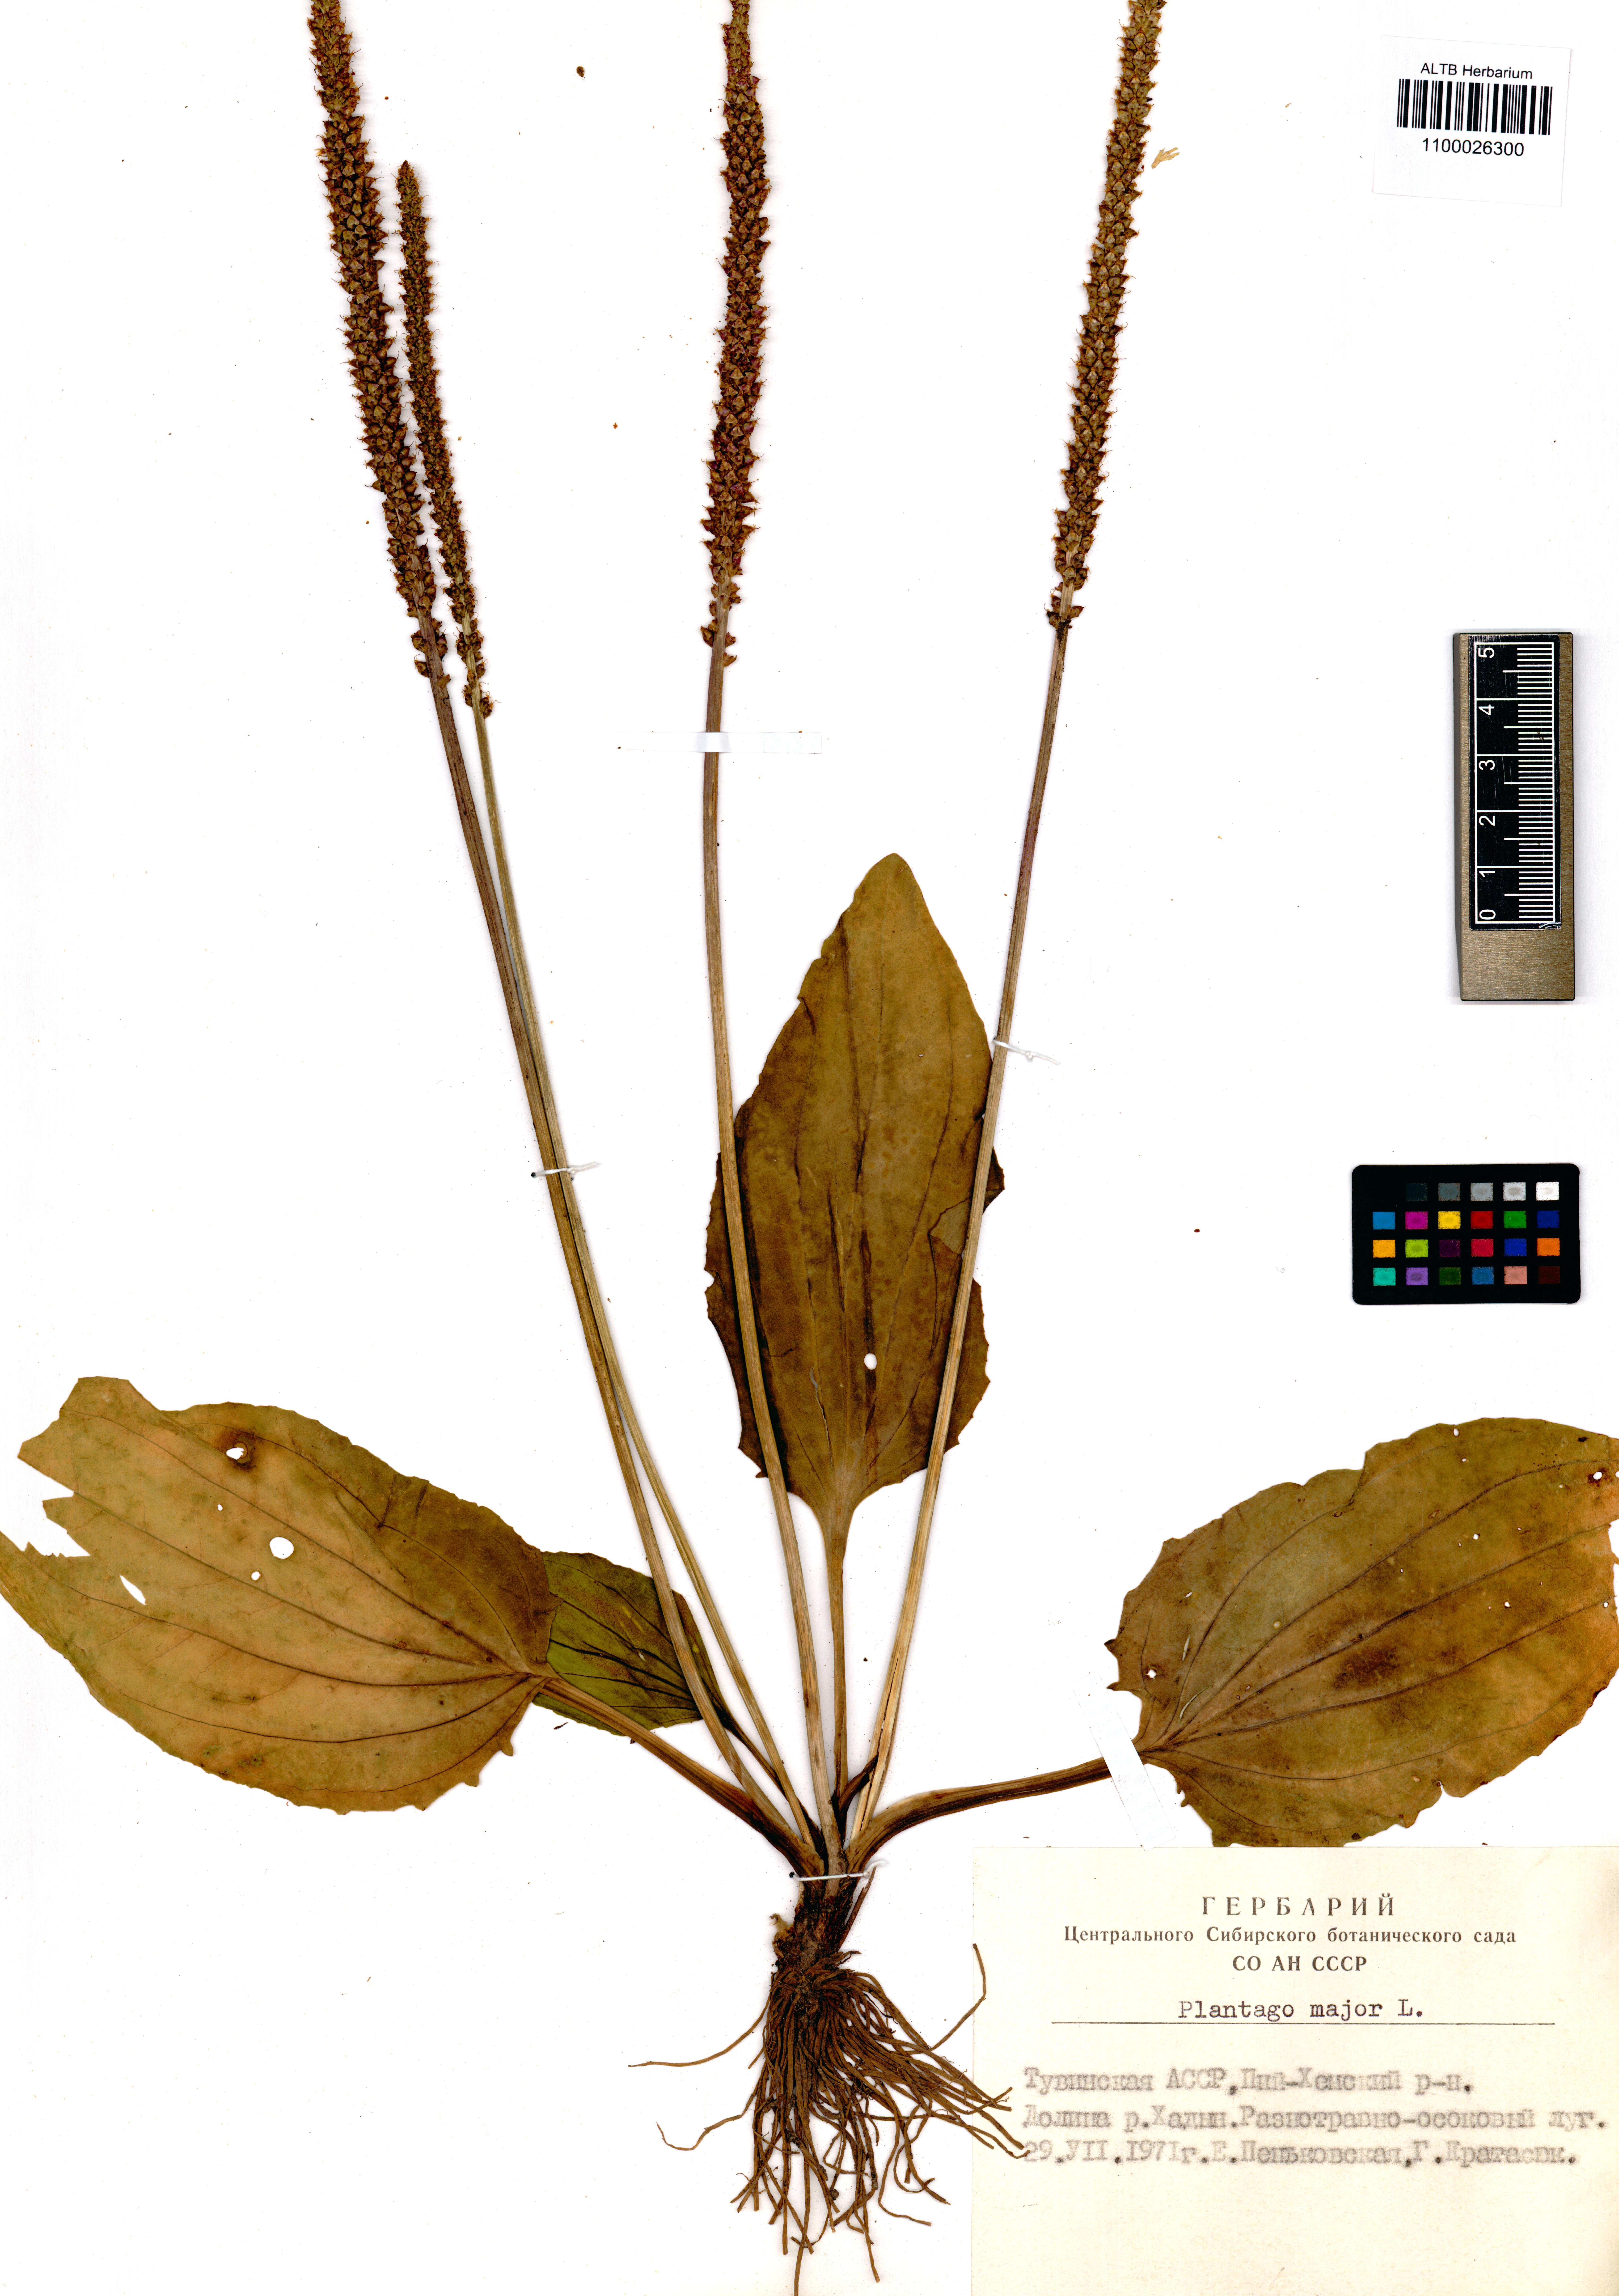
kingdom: Plantae
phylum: Tracheophyta
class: Magnoliopsida
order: Lamiales
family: Plantaginaceae
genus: Plantago
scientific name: Plantago major
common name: Common plantain
